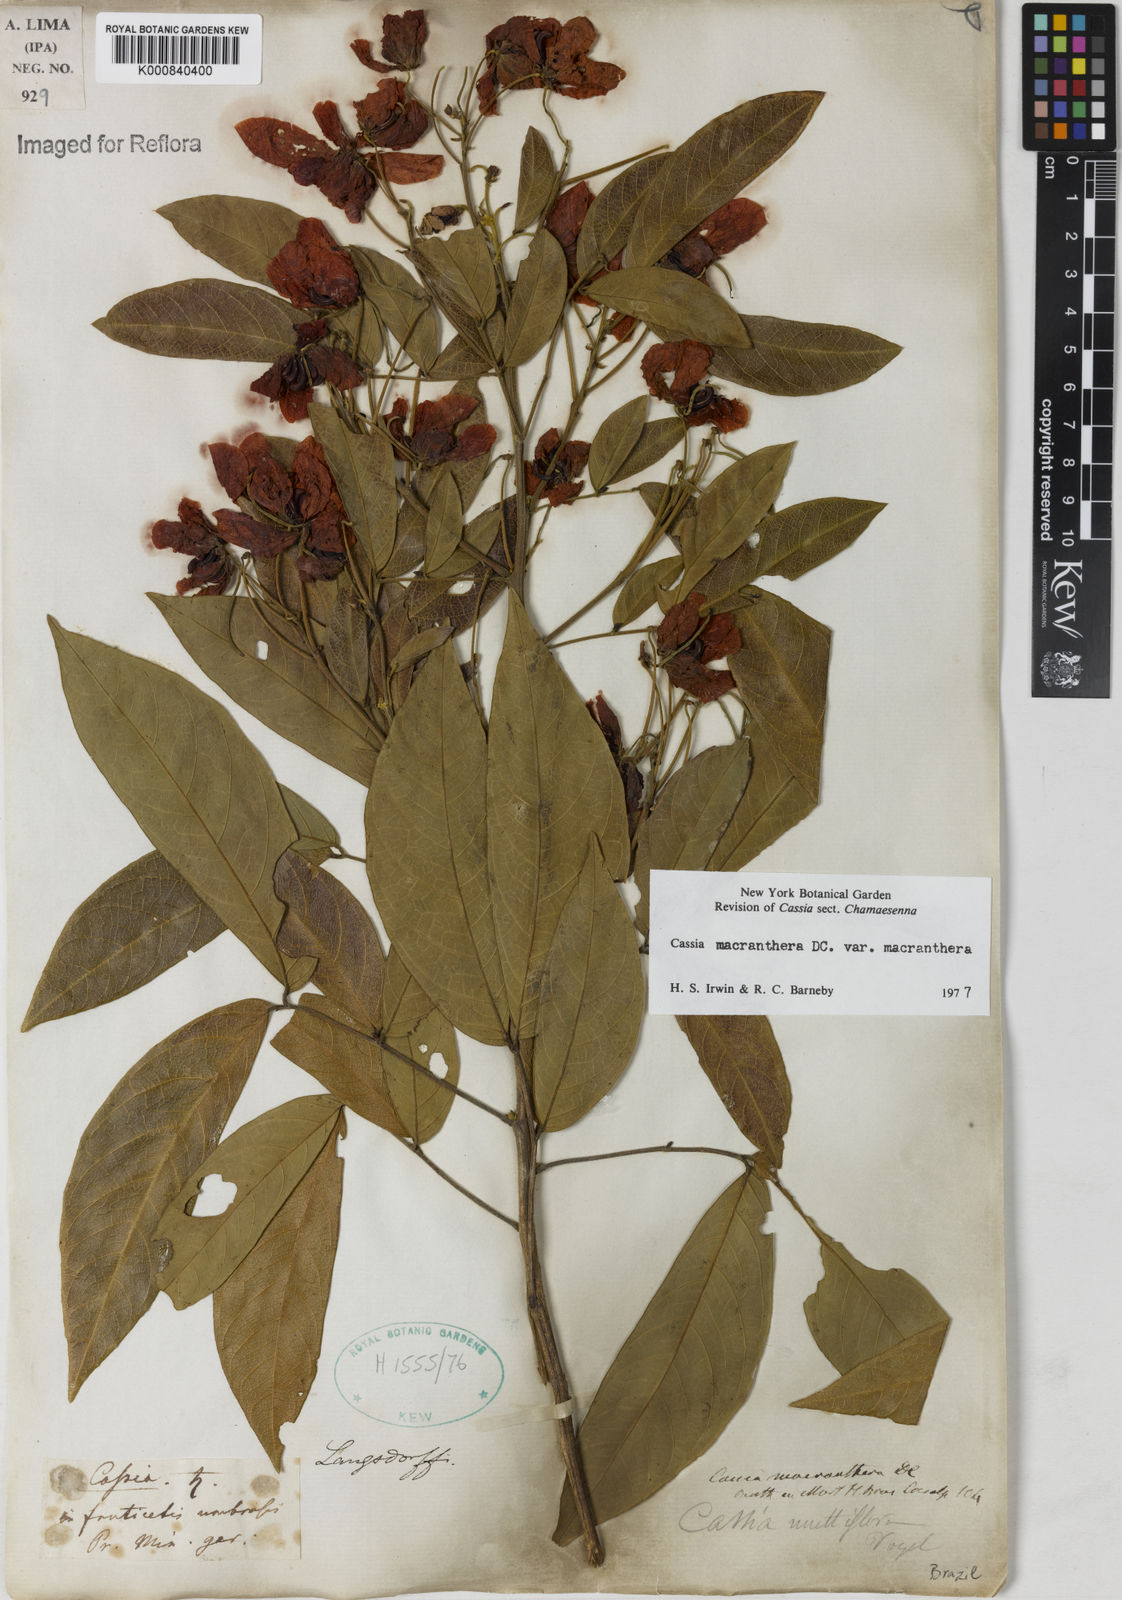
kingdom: Plantae
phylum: Tracheophyta
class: Magnoliopsida
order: Fabales
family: Fabaceae
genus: Senna
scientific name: Senna macranthera
